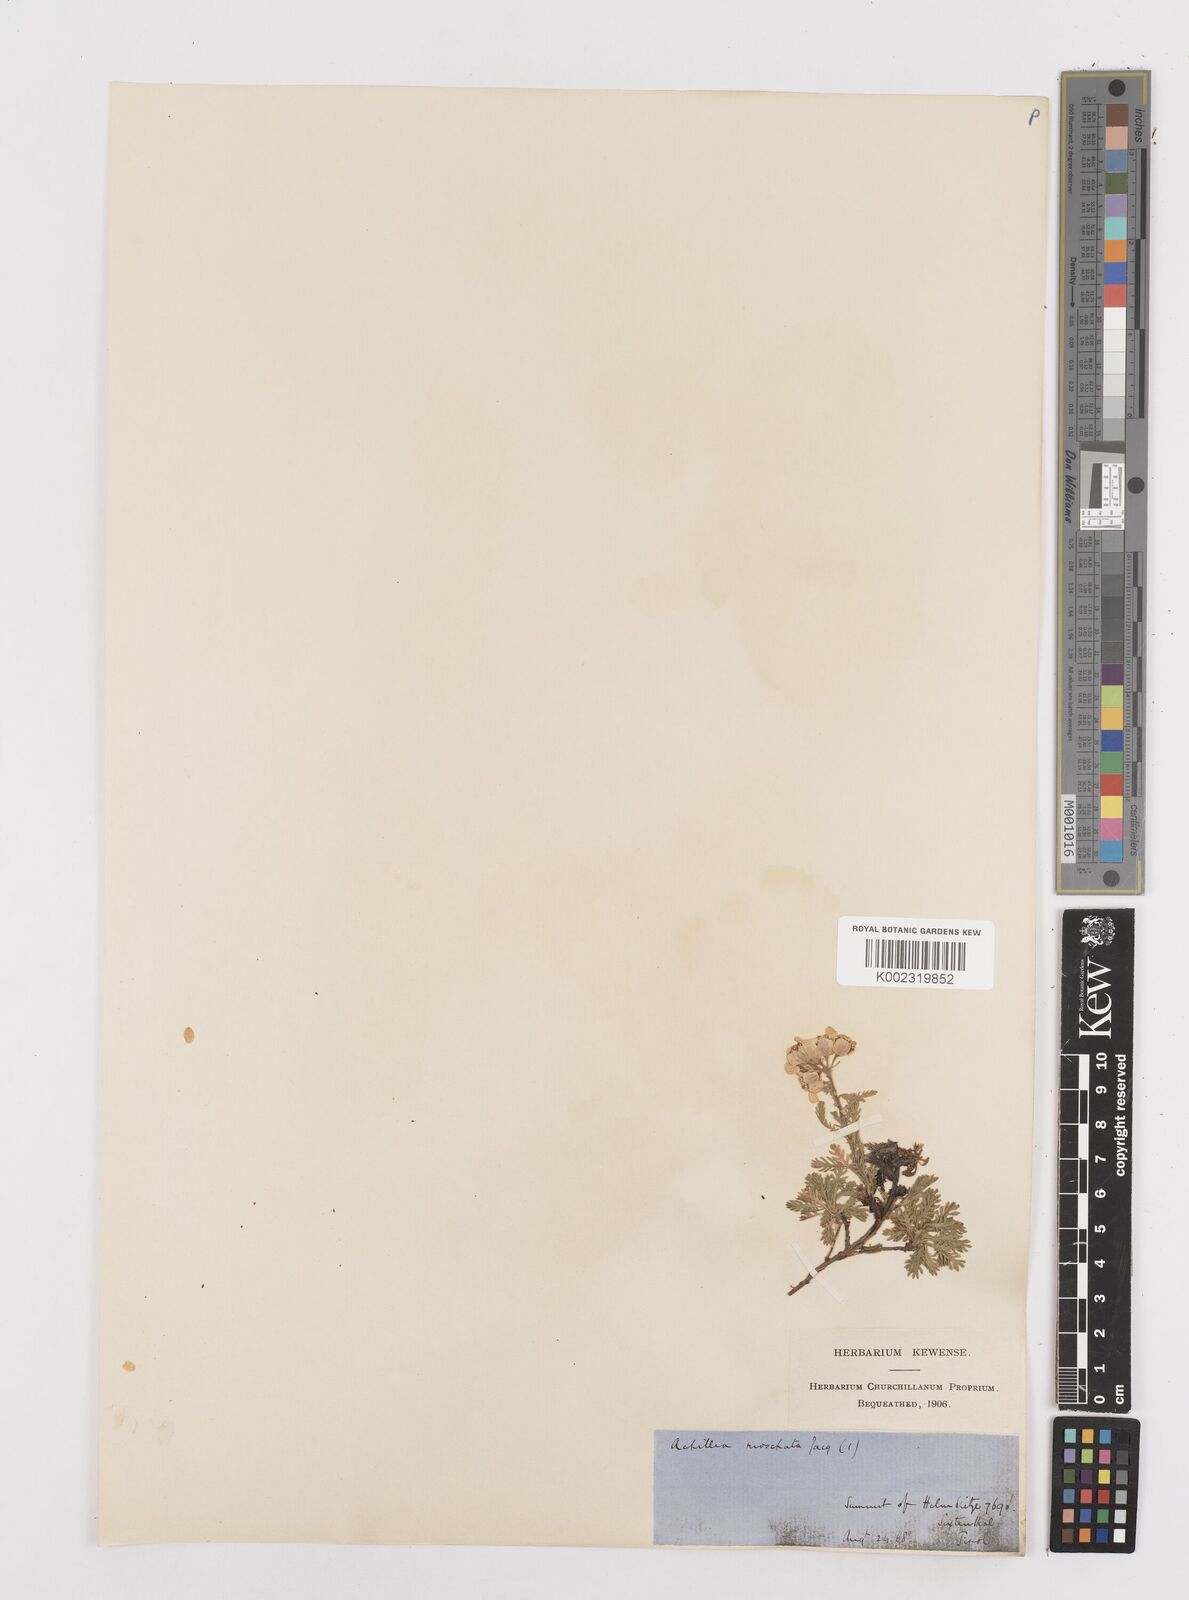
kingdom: Plantae
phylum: Tracheophyta
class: Magnoliopsida
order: Asterales
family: Asteraceae
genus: Achillea
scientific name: Achillea erba-rotta
